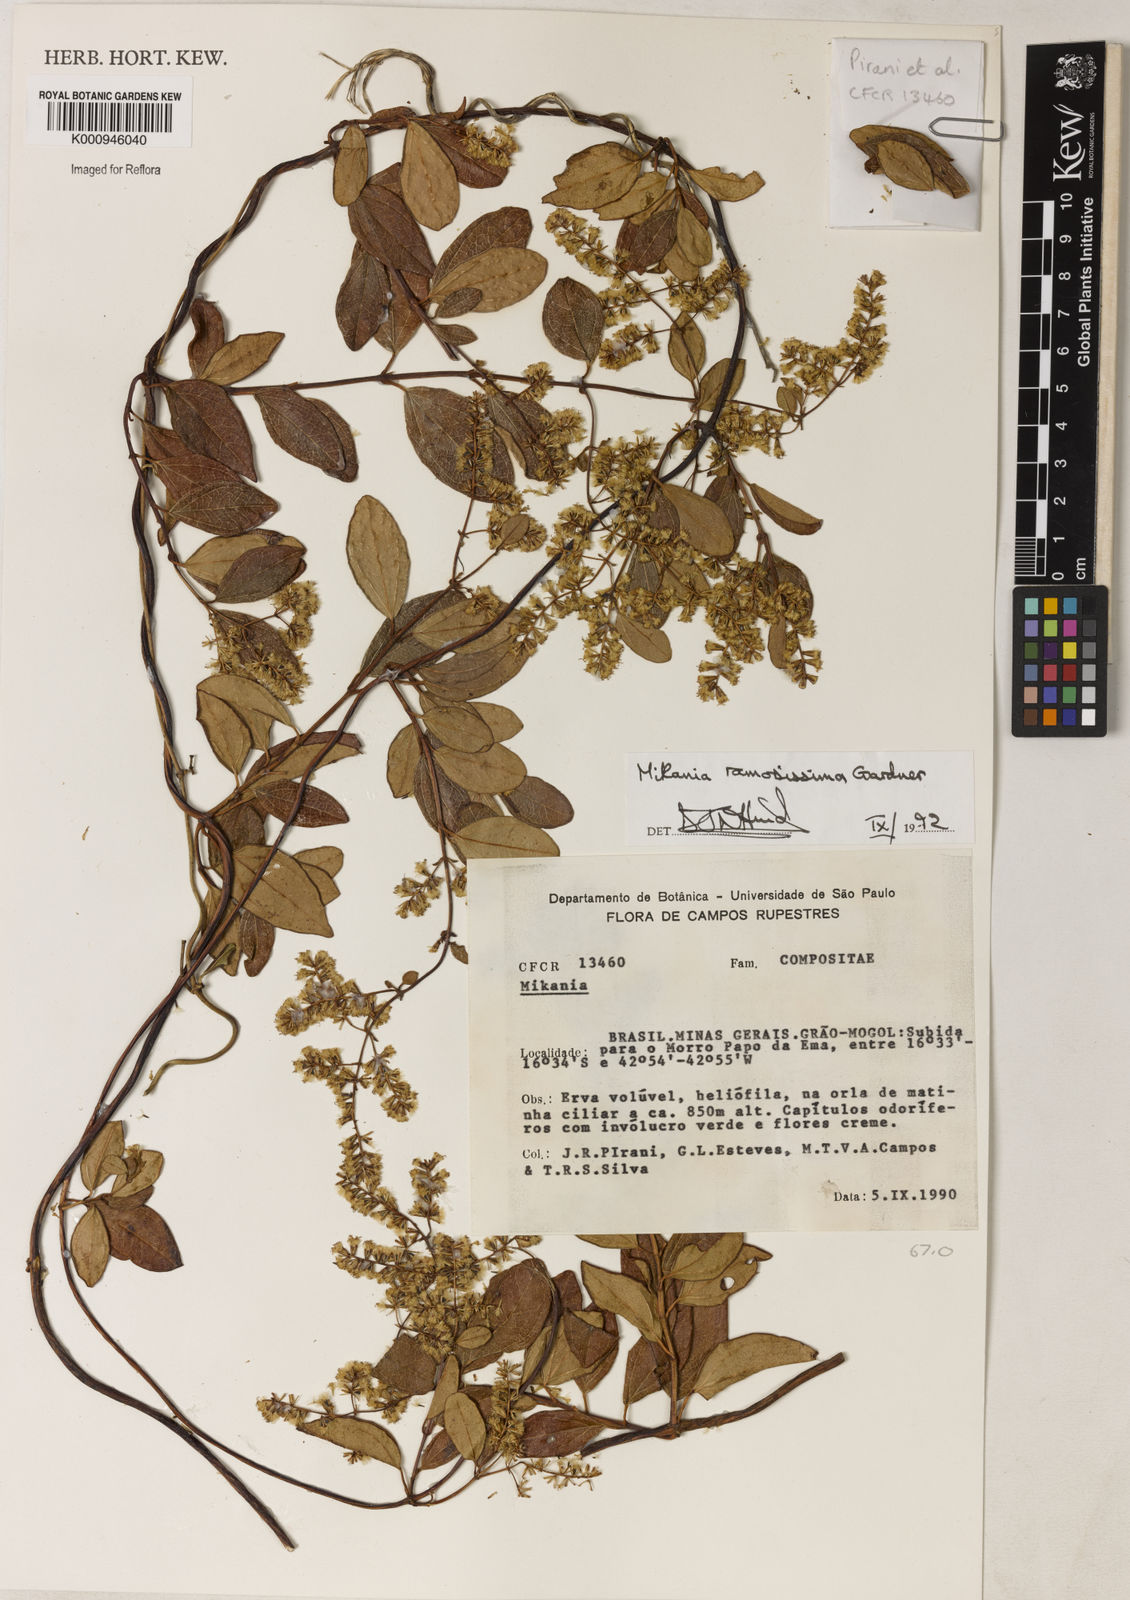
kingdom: Plantae
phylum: Tracheophyta
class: Magnoliopsida
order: Asterales
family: Asteraceae
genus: Mikania
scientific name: Mikania ramosissima
